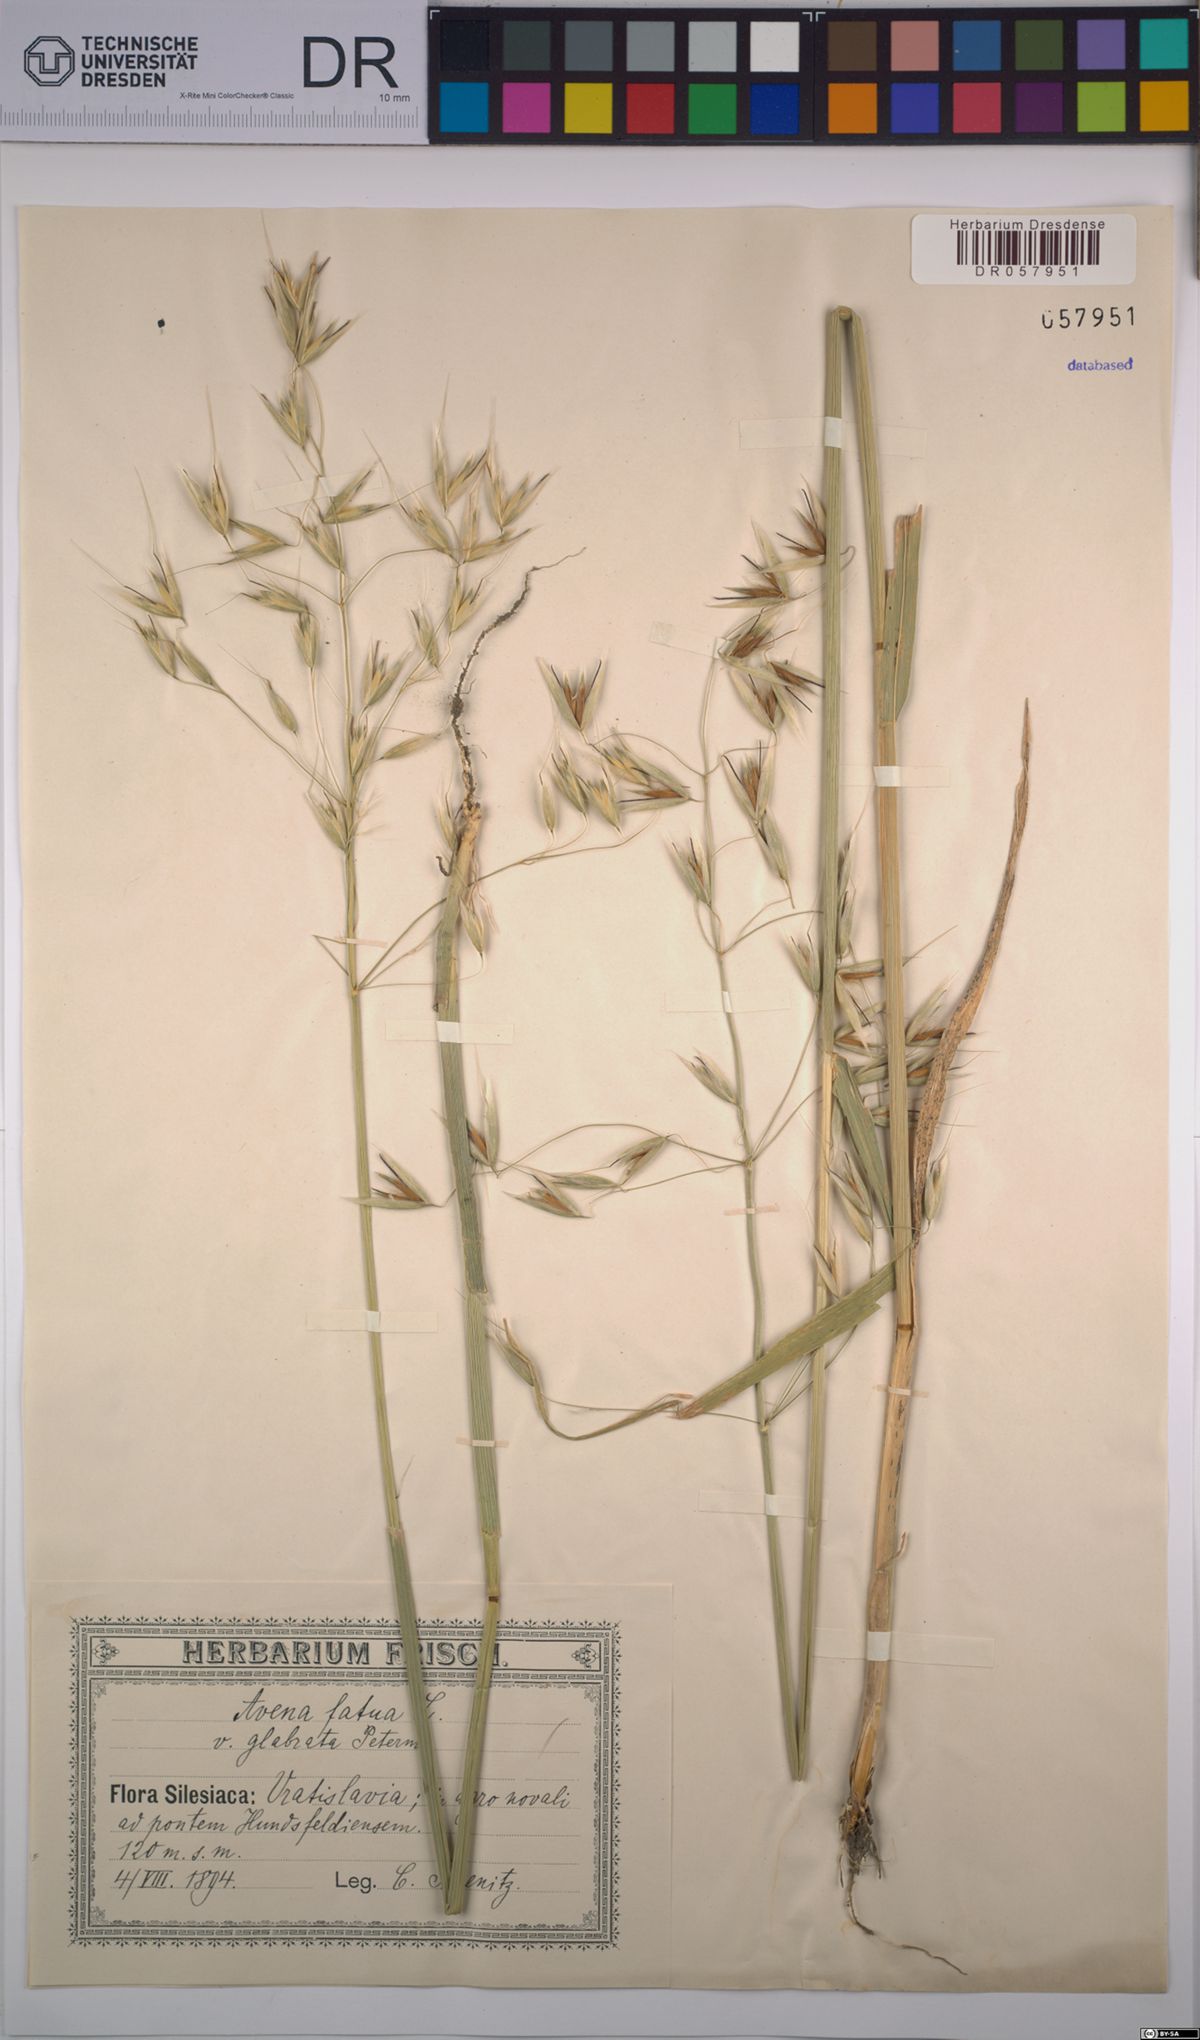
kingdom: Plantae
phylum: Tracheophyta
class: Liliopsida
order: Poales
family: Poaceae
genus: Avena
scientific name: Avena fatua
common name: Wild oat
